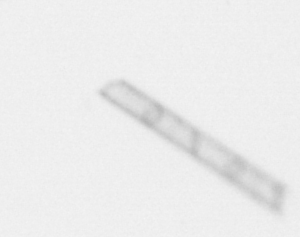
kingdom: Chromista
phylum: Ochrophyta
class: Bacillariophyceae
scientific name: Bacillariophyceae
